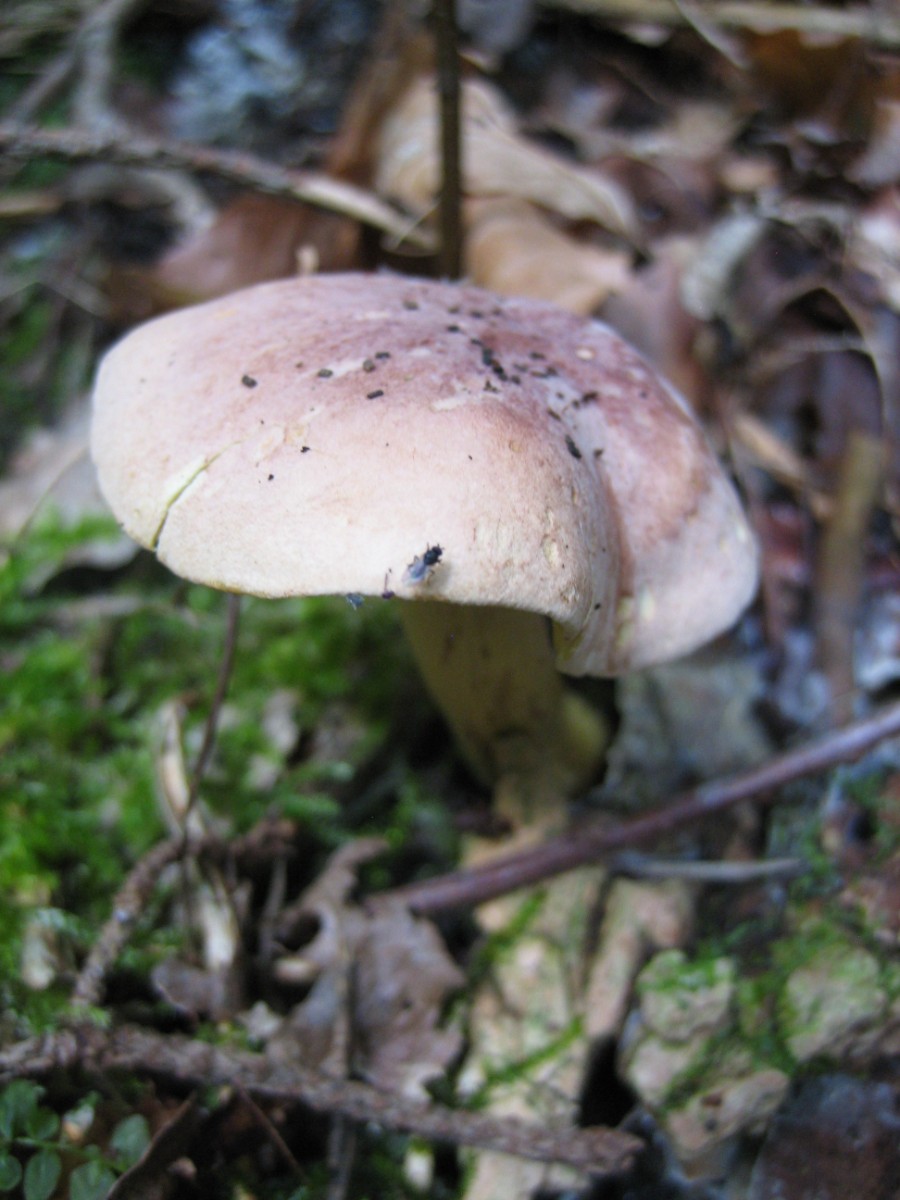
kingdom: Fungi
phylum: Basidiomycota
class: Agaricomycetes
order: Agaricales
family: Tricholomataceae
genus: Tricholoma
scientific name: Tricholoma sulphureum
